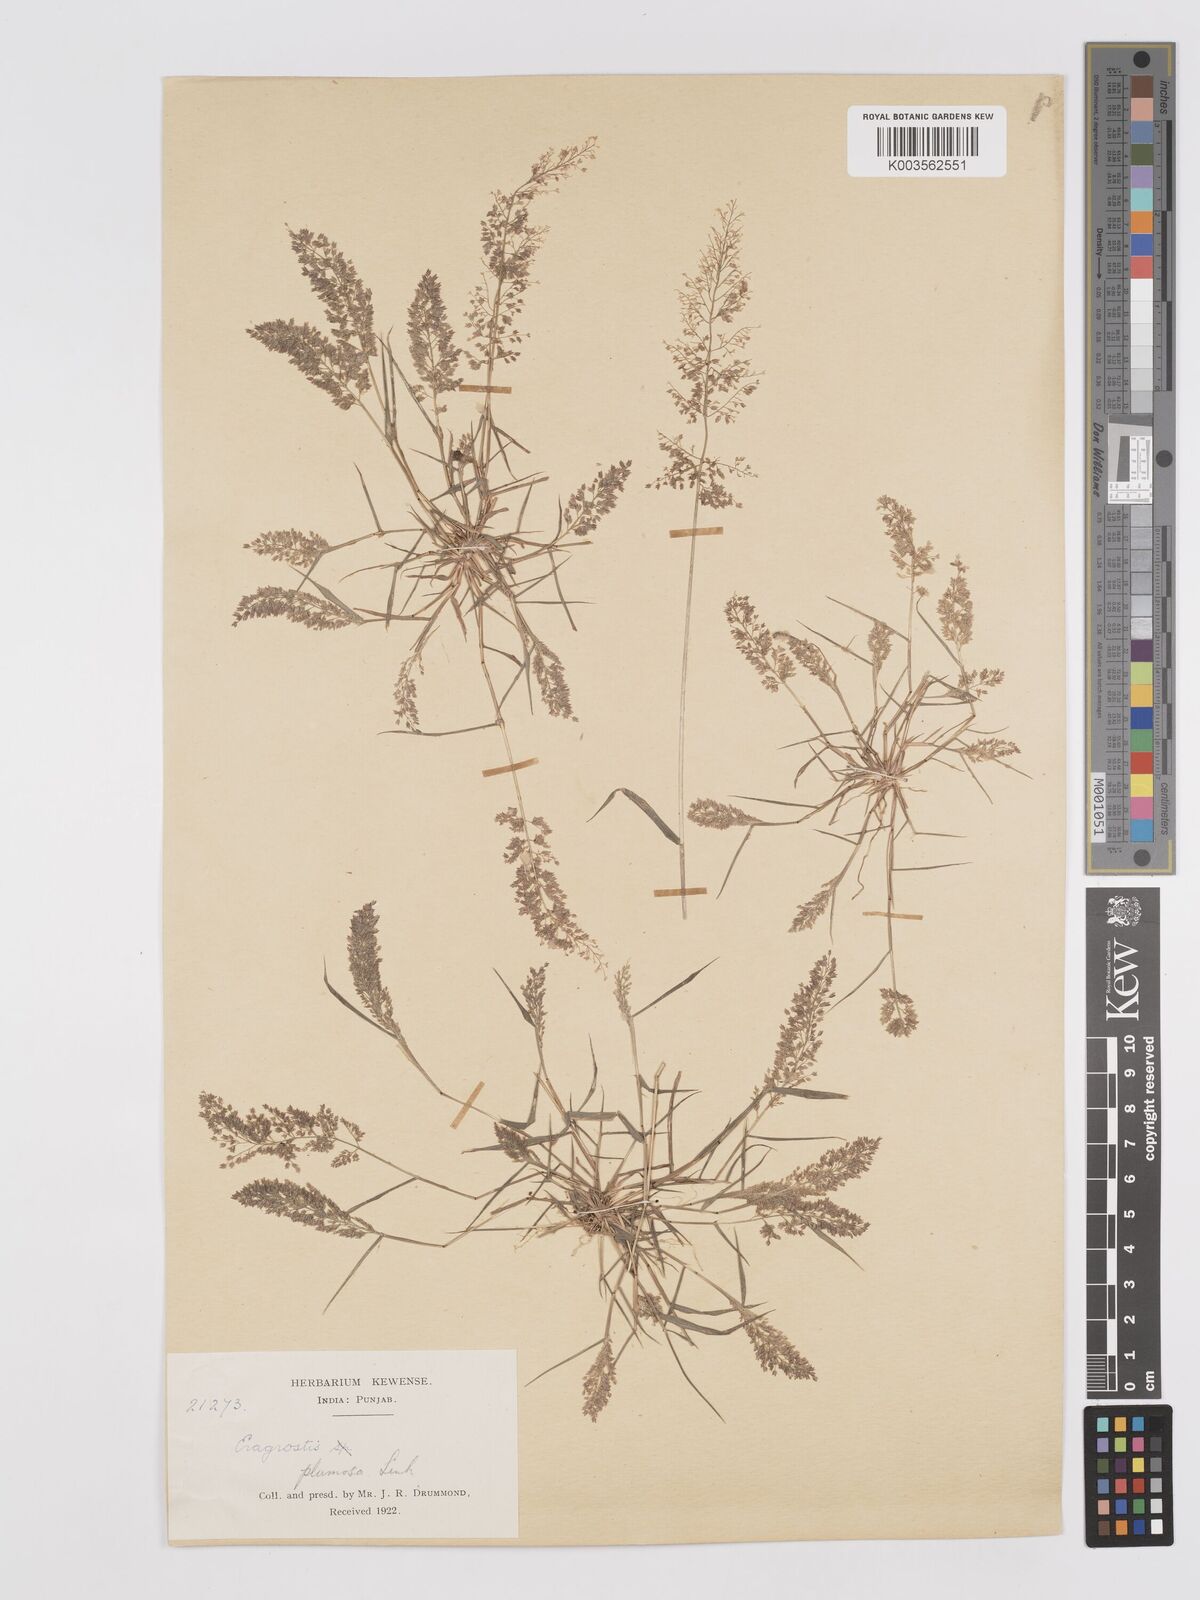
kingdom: Plantae
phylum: Tracheophyta
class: Liliopsida
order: Poales
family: Poaceae
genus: Eragrostis
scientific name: Eragrostis tenella
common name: Japanese lovegrass
